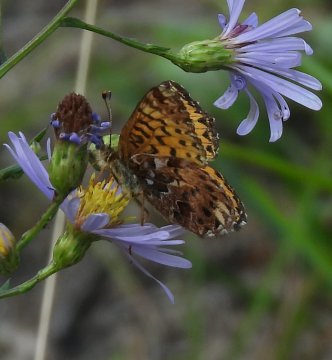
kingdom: Animalia
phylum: Arthropoda
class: Insecta
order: Lepidoptera
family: Nymphalidae
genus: Boloria
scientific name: Boloria chariclea
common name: Arctic Fritillary
